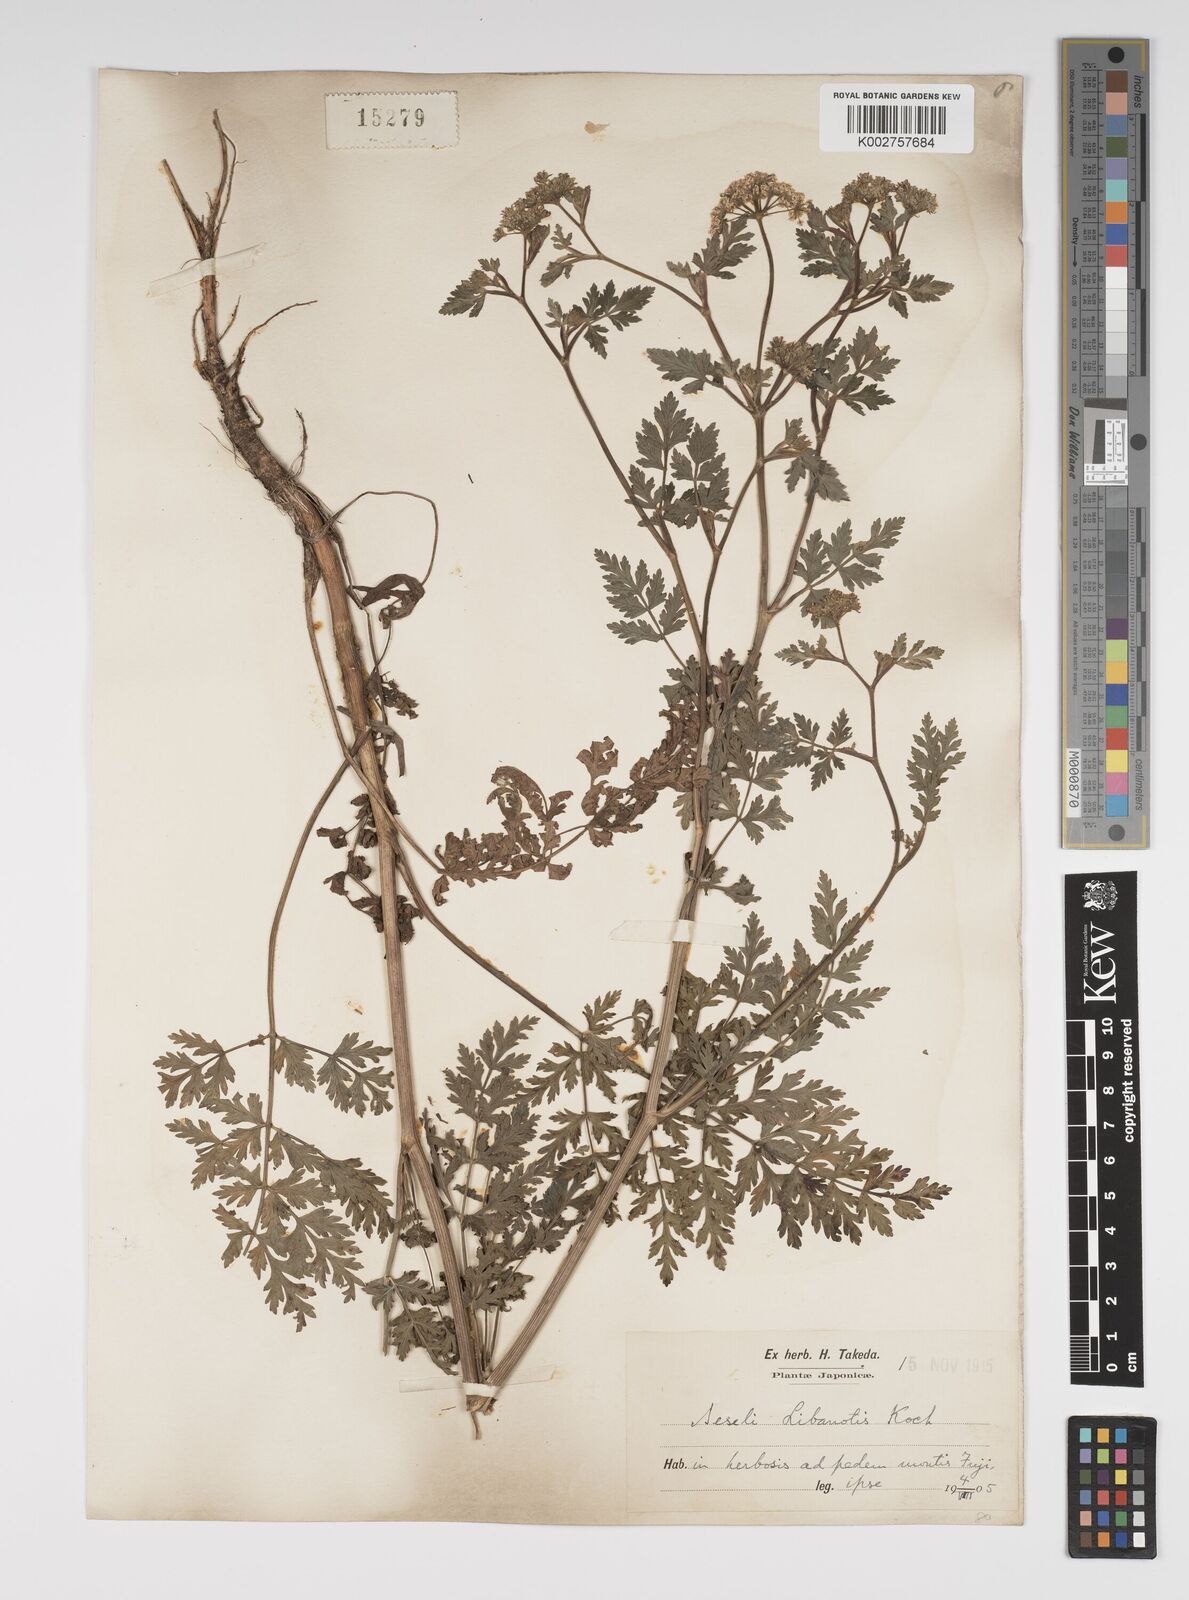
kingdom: Plantae
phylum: Tracheophyta
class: Magnoliopsida
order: Apiales
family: Apiaceae
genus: Seseli
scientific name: Seseli libanotis
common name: Mooncarrot
